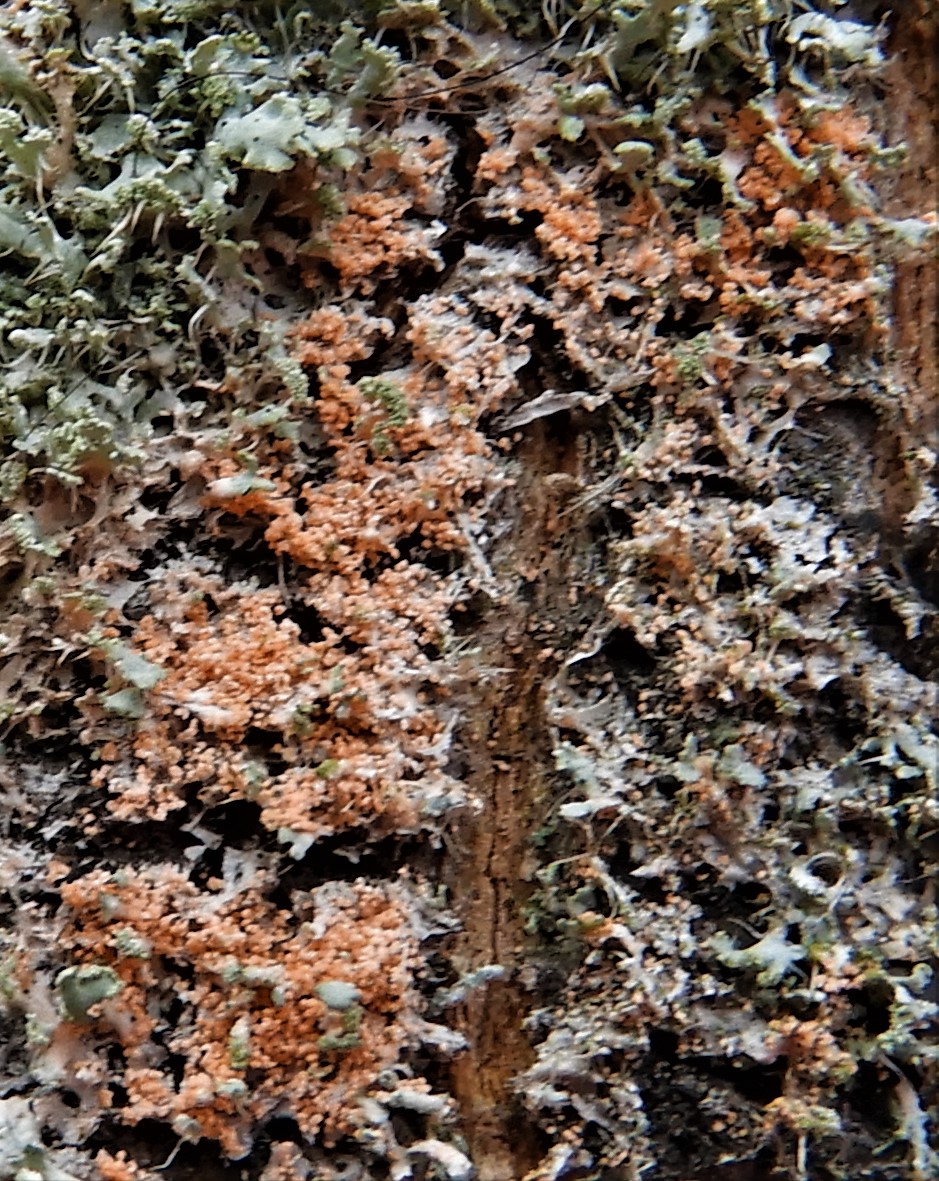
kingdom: Fungi
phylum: Basidiomycota
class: Agaricomycetes
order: Corticiales
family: Corticiaceae
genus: Erythricium
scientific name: Erythricium aurantiacum
